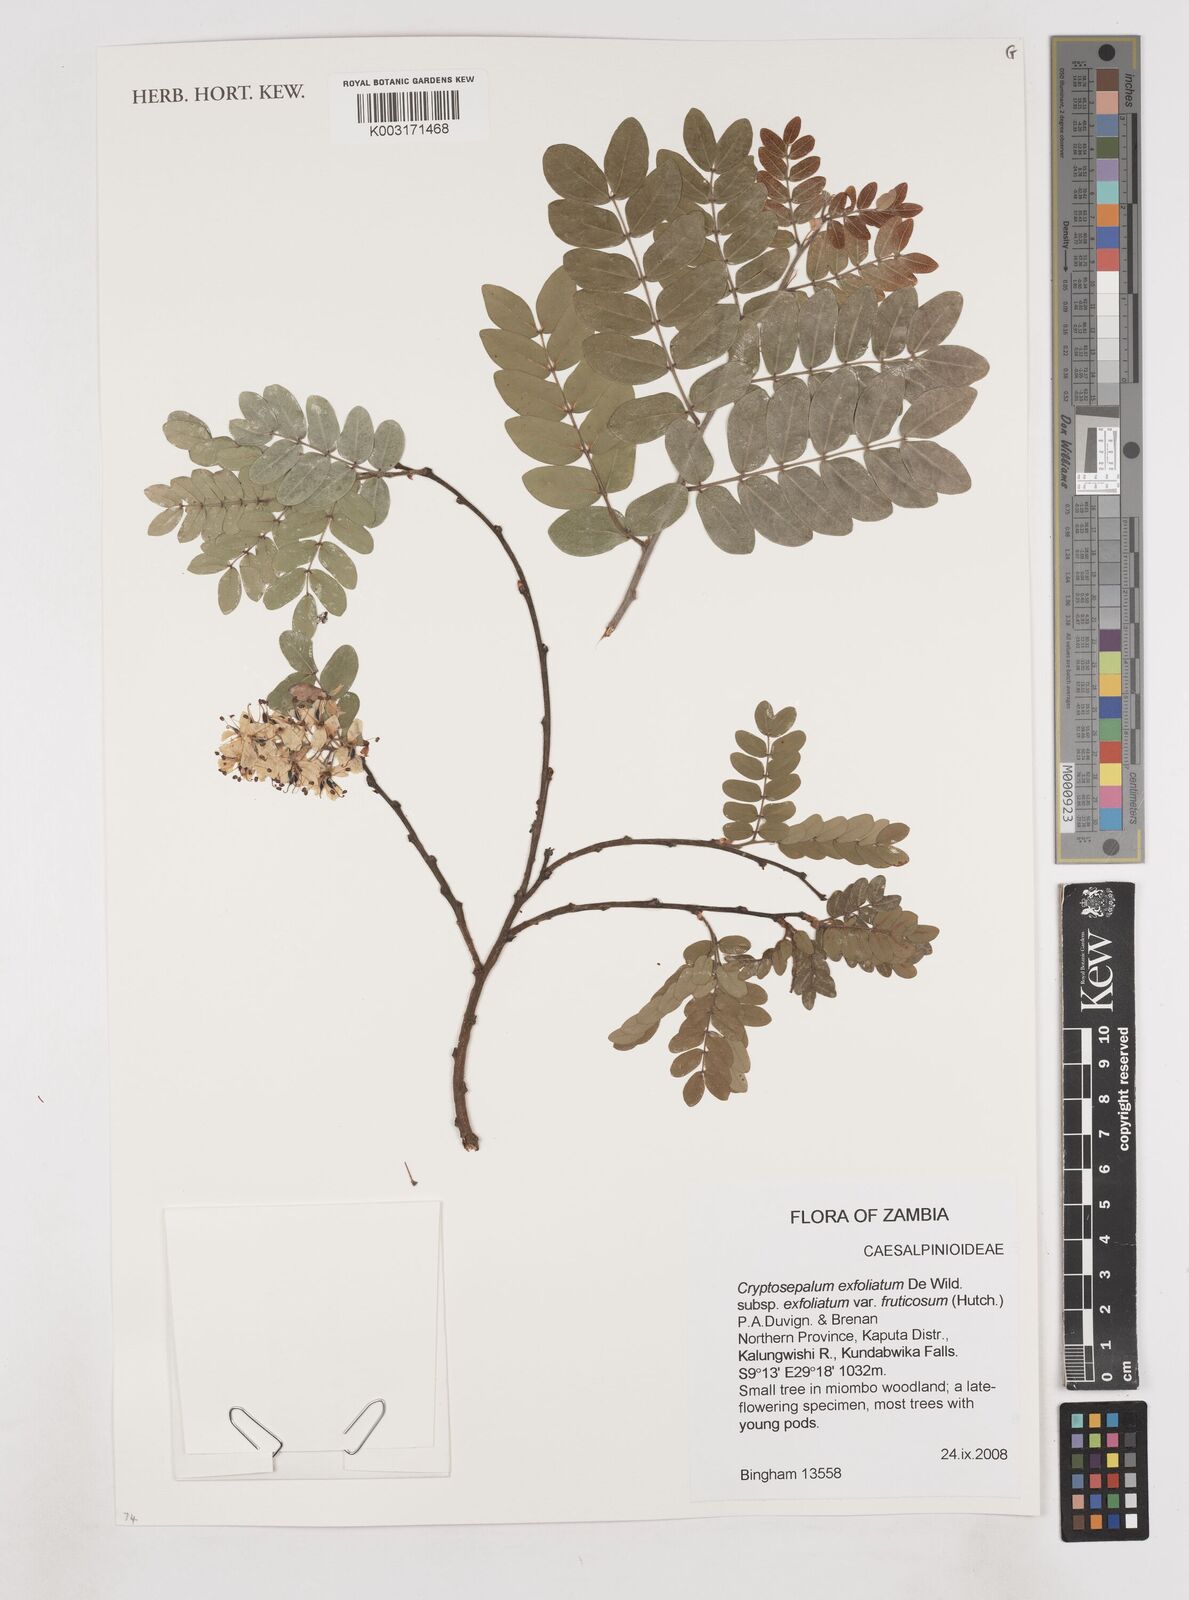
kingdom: Plantae
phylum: Tracheophyta
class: Magnoliopsida
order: Fabales
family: Fabaceae
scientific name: Fabaceae
